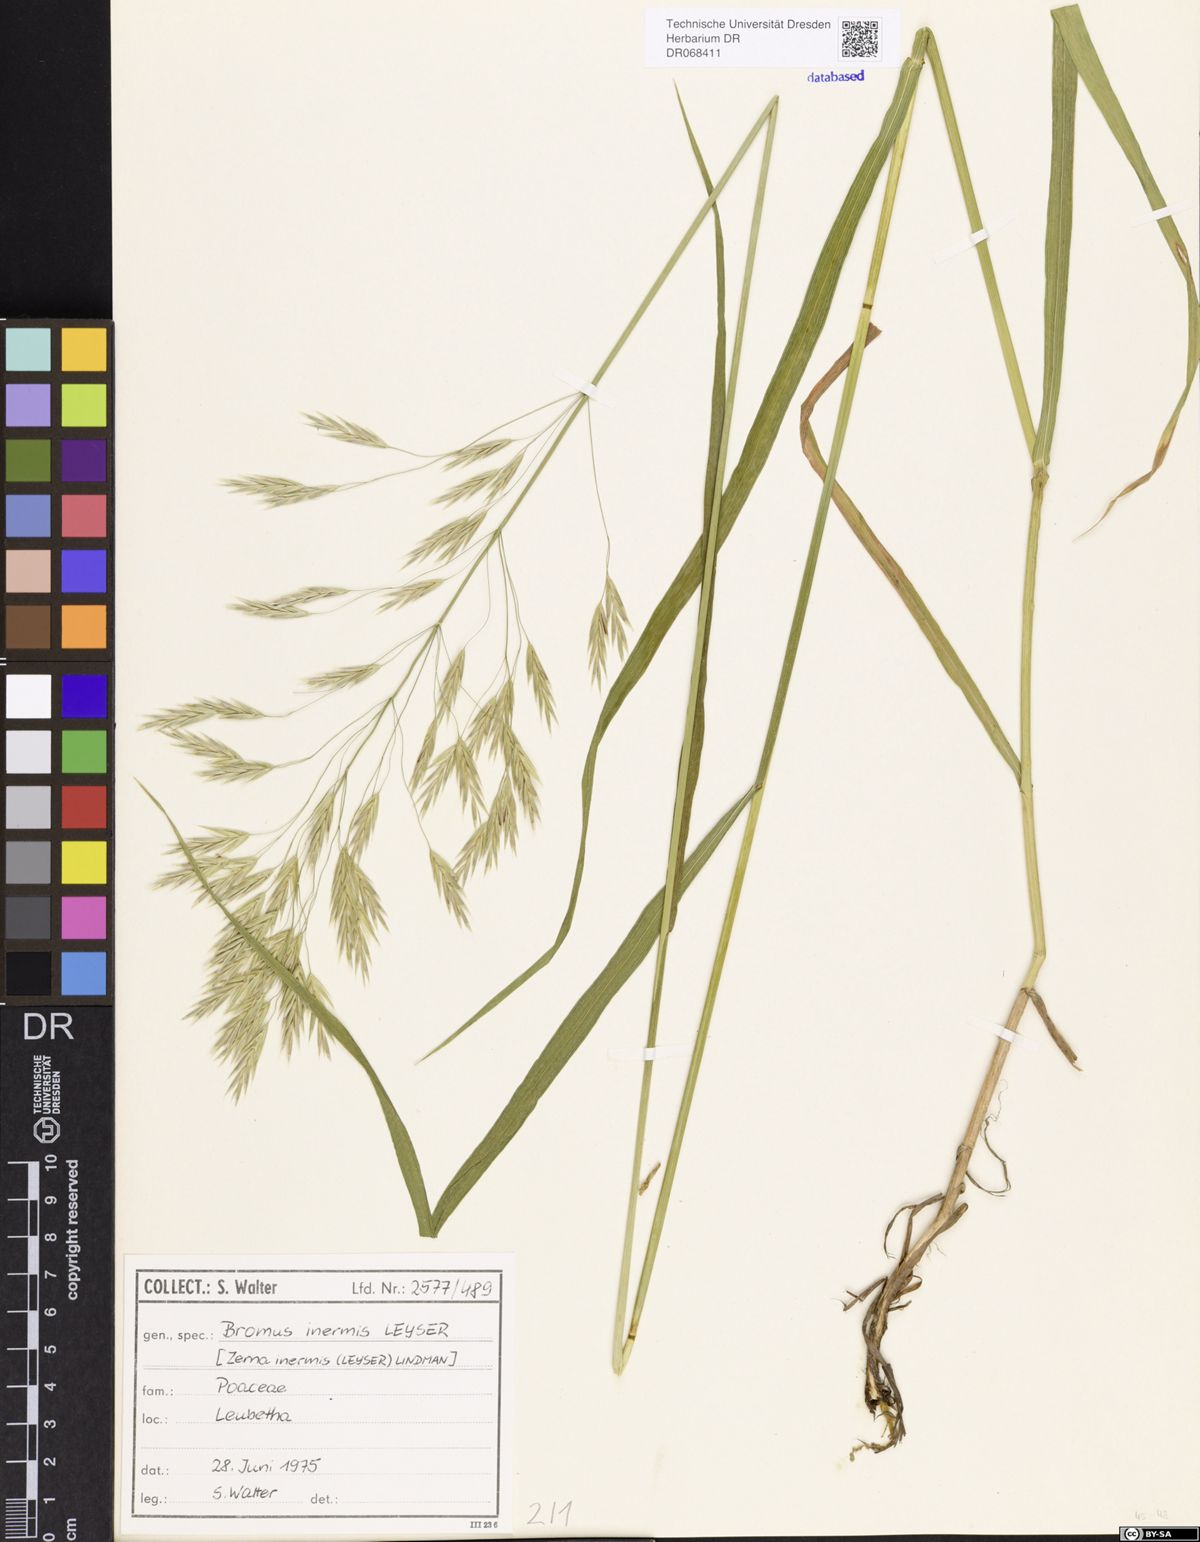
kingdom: Plantae
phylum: Tracheophyta
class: Liliopsida
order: Poales
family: Poaceae
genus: Bromus
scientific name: Bromus inermis
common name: Smooth brome
